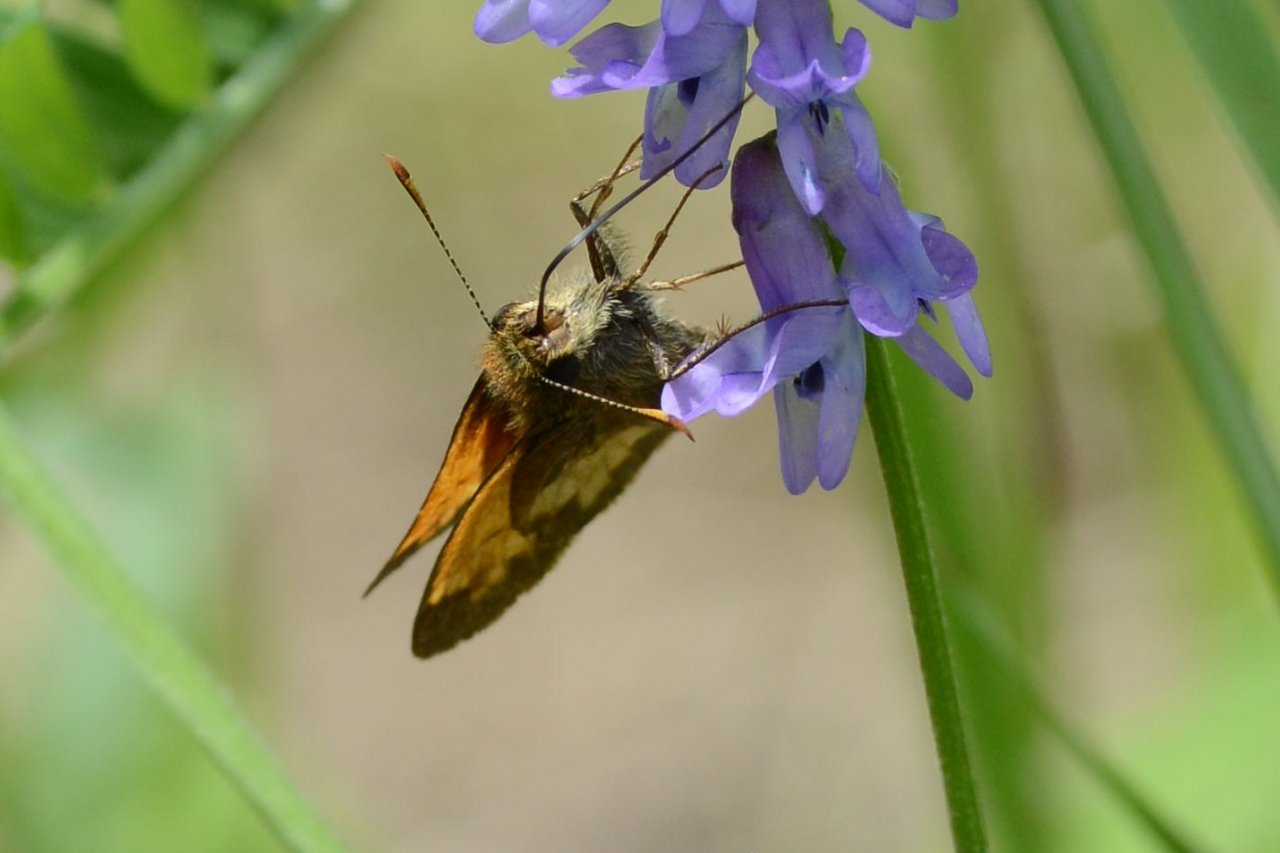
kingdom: Animalia
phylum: Arthropoda
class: Insecta
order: Lepidoptera
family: Hesperiidae
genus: Lon
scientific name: Lon hobomok
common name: Hobomok Skipper
